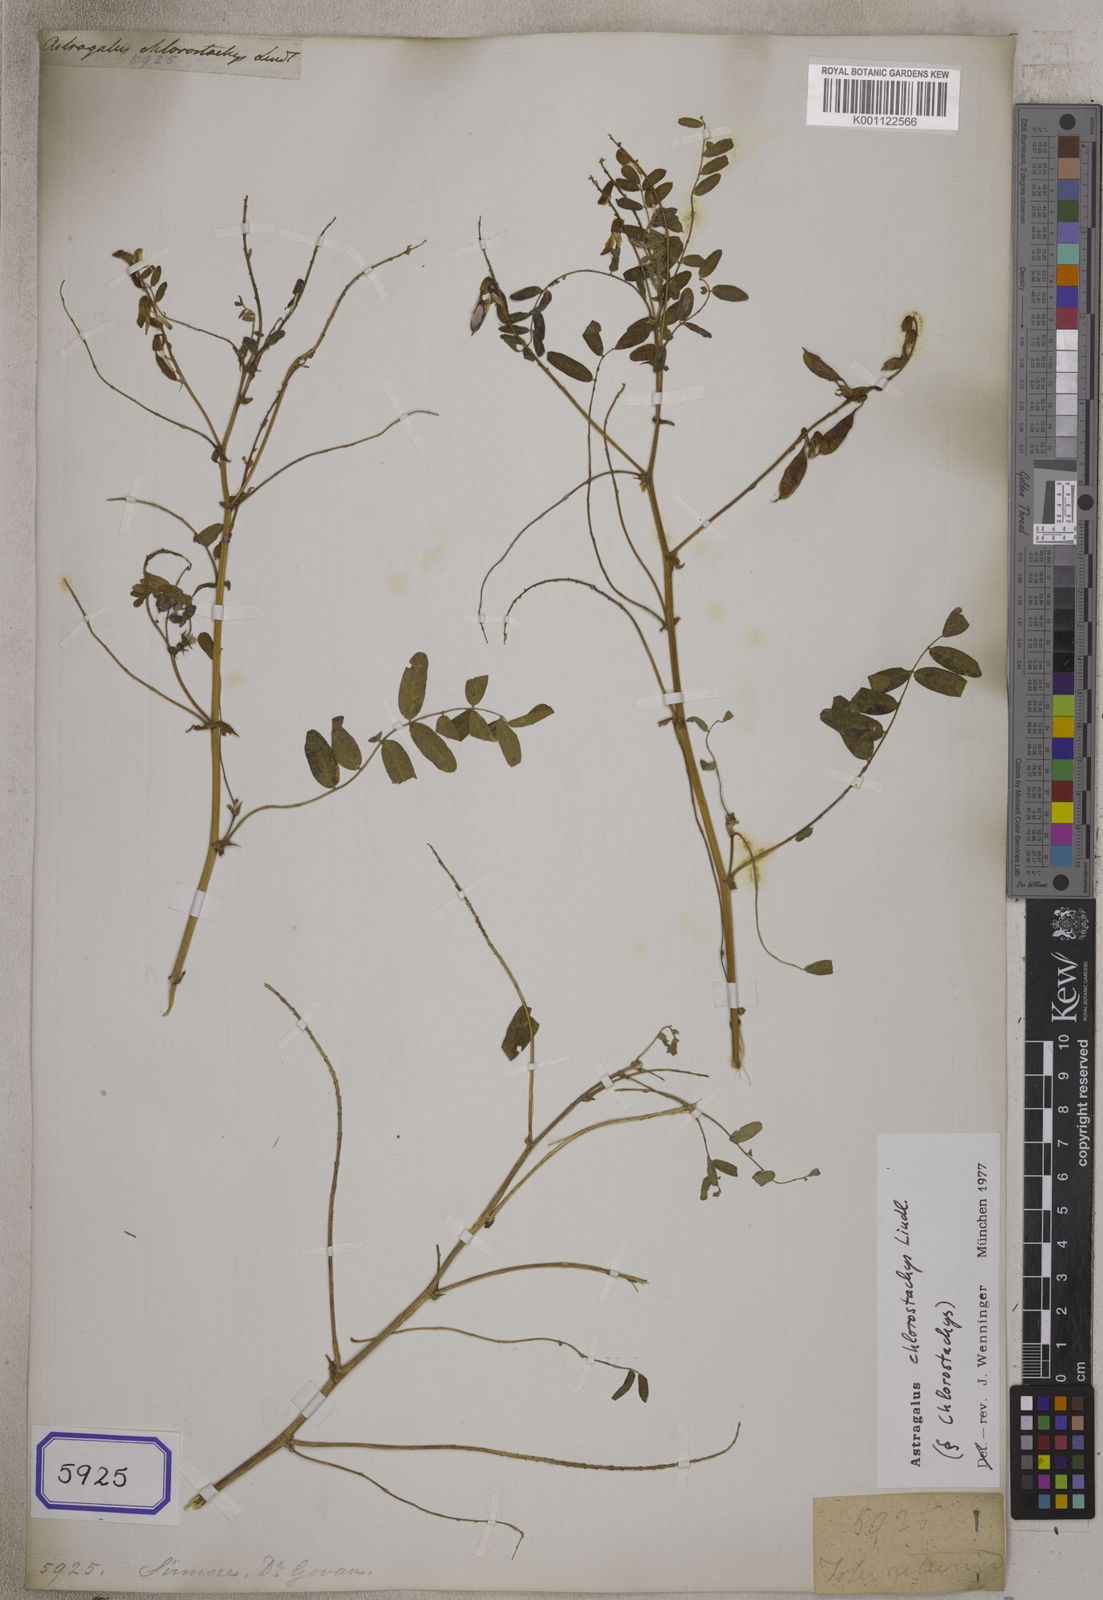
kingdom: Plantae
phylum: Tracheophyta
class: Magnoliopsida
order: Fabales
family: Fabaceae
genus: Astragalus
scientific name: Astragalus chlorostachys
